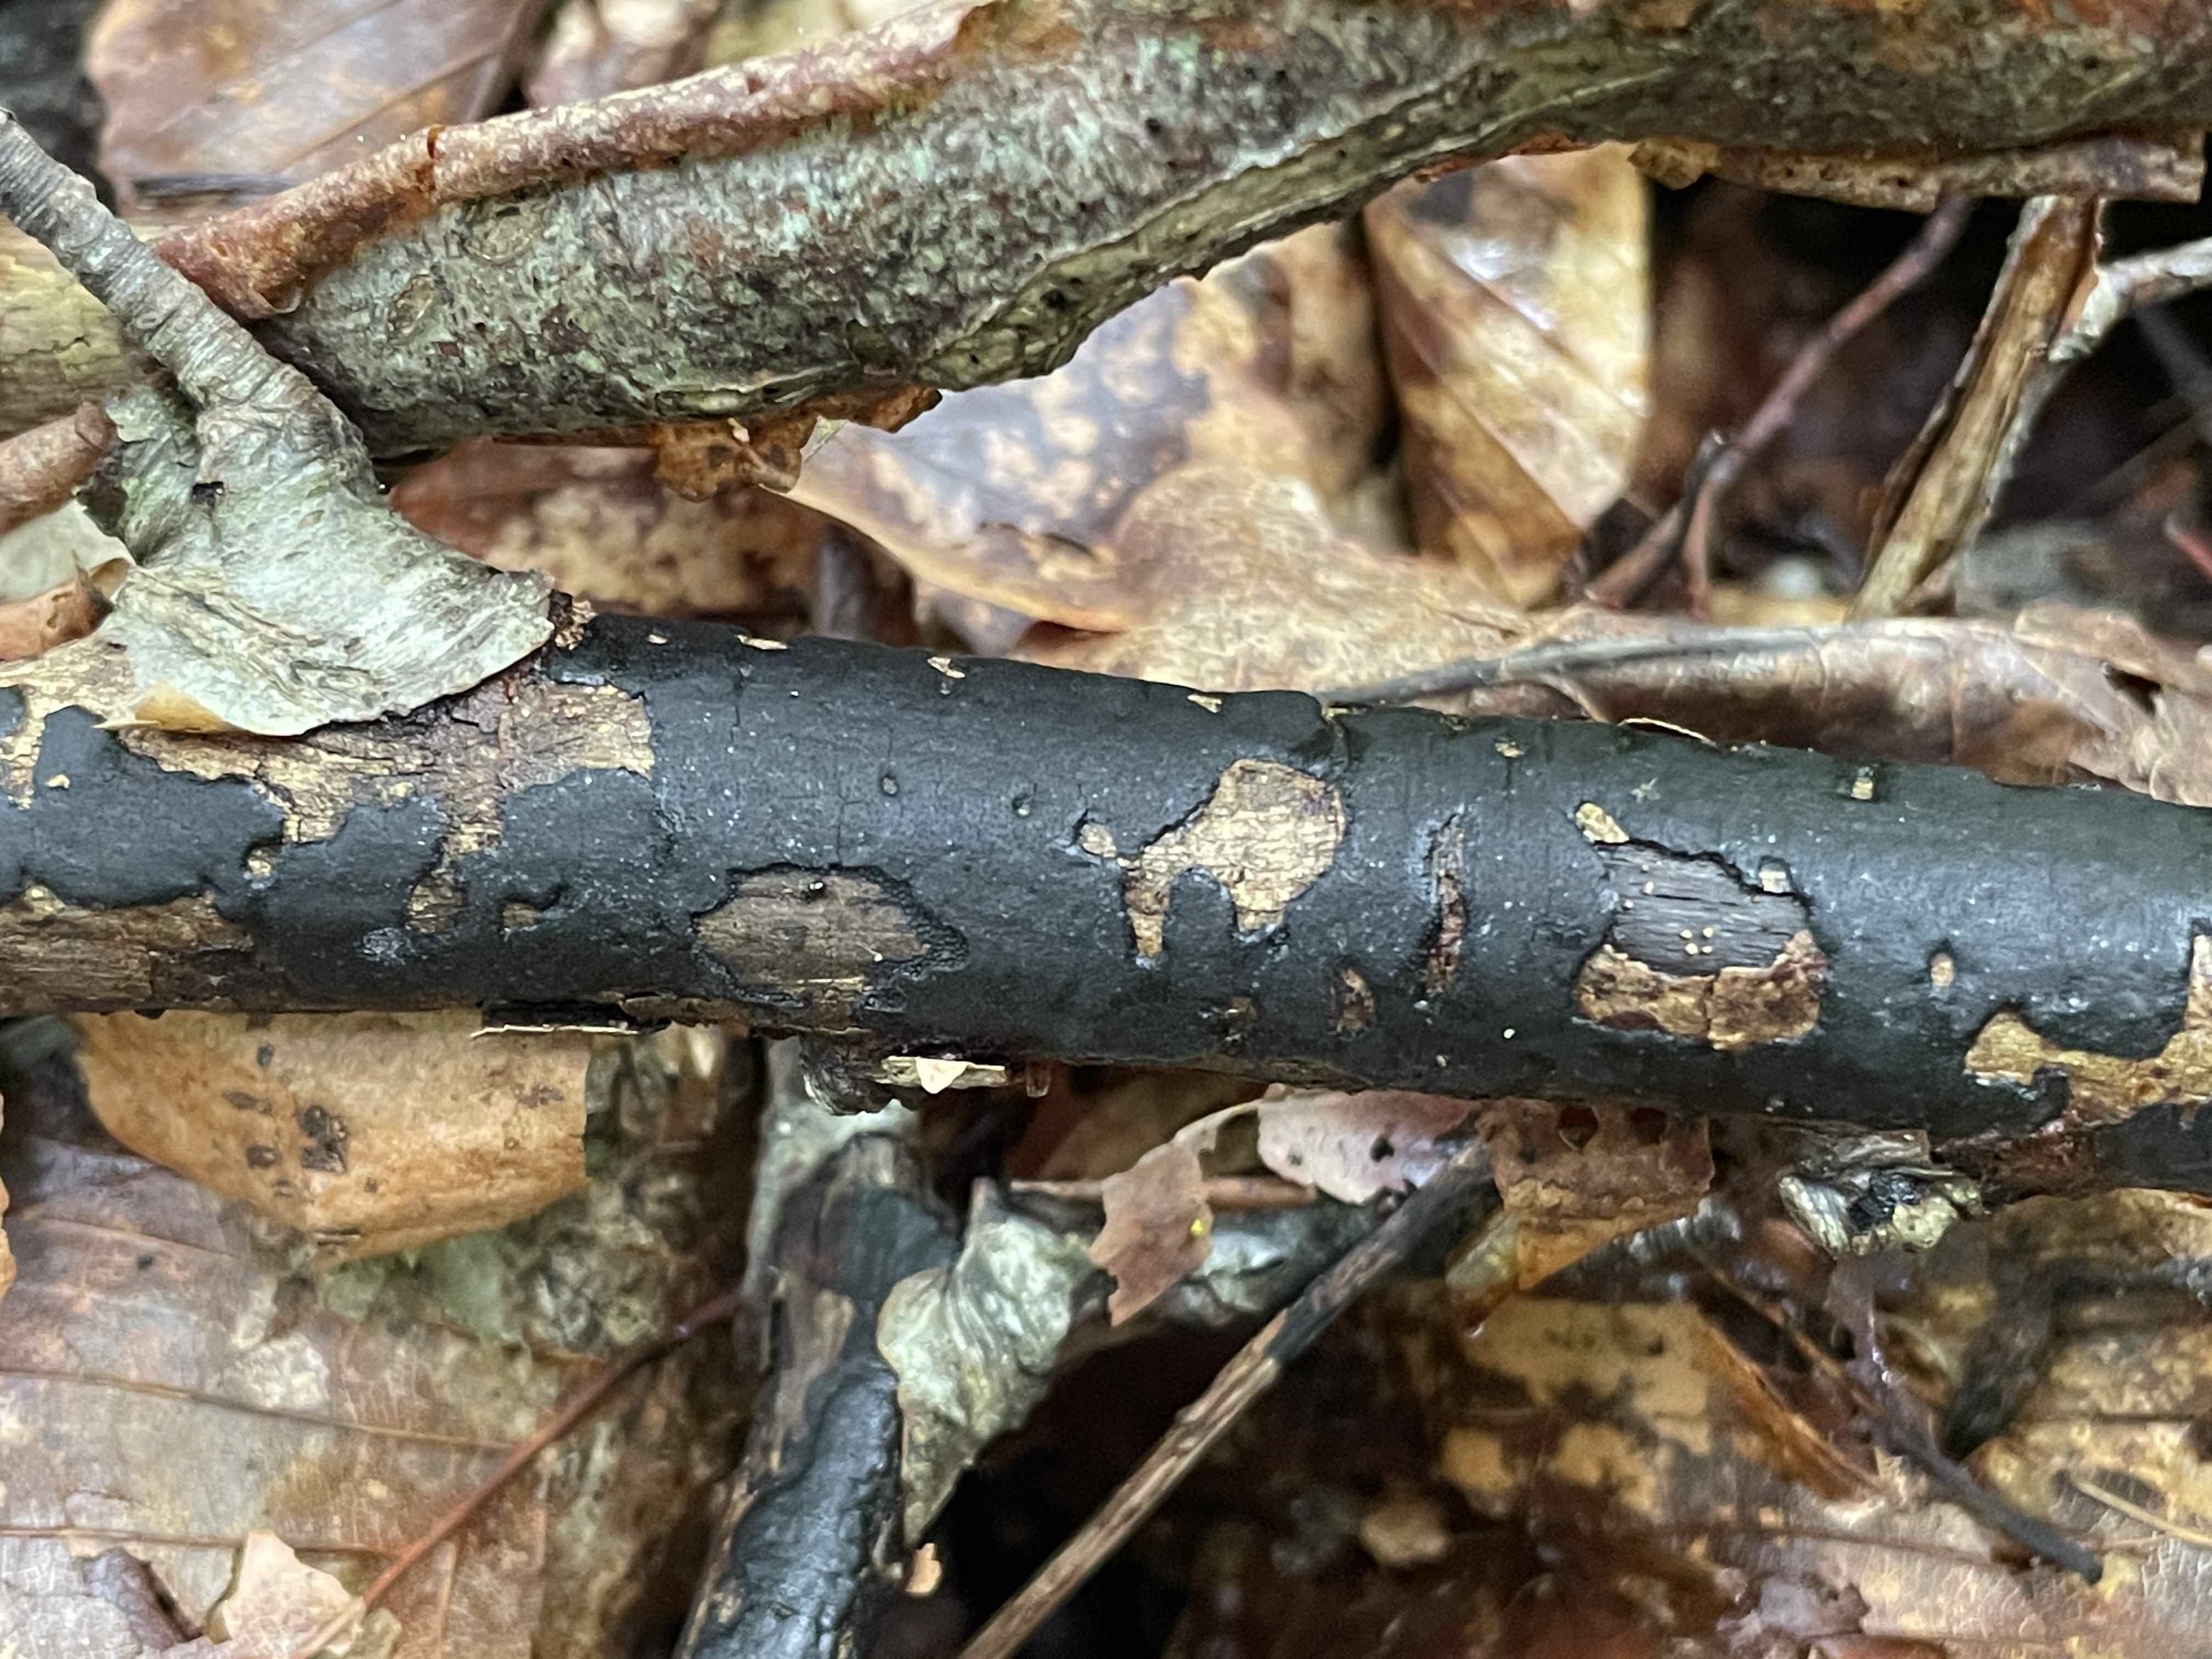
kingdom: Fungi
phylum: Ascomycota
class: Sordariomycetes
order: Xylariales
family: Diatrypaceae
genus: Diatrype
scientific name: Diatrype decorticata
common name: barksprænger-kulskorpe
